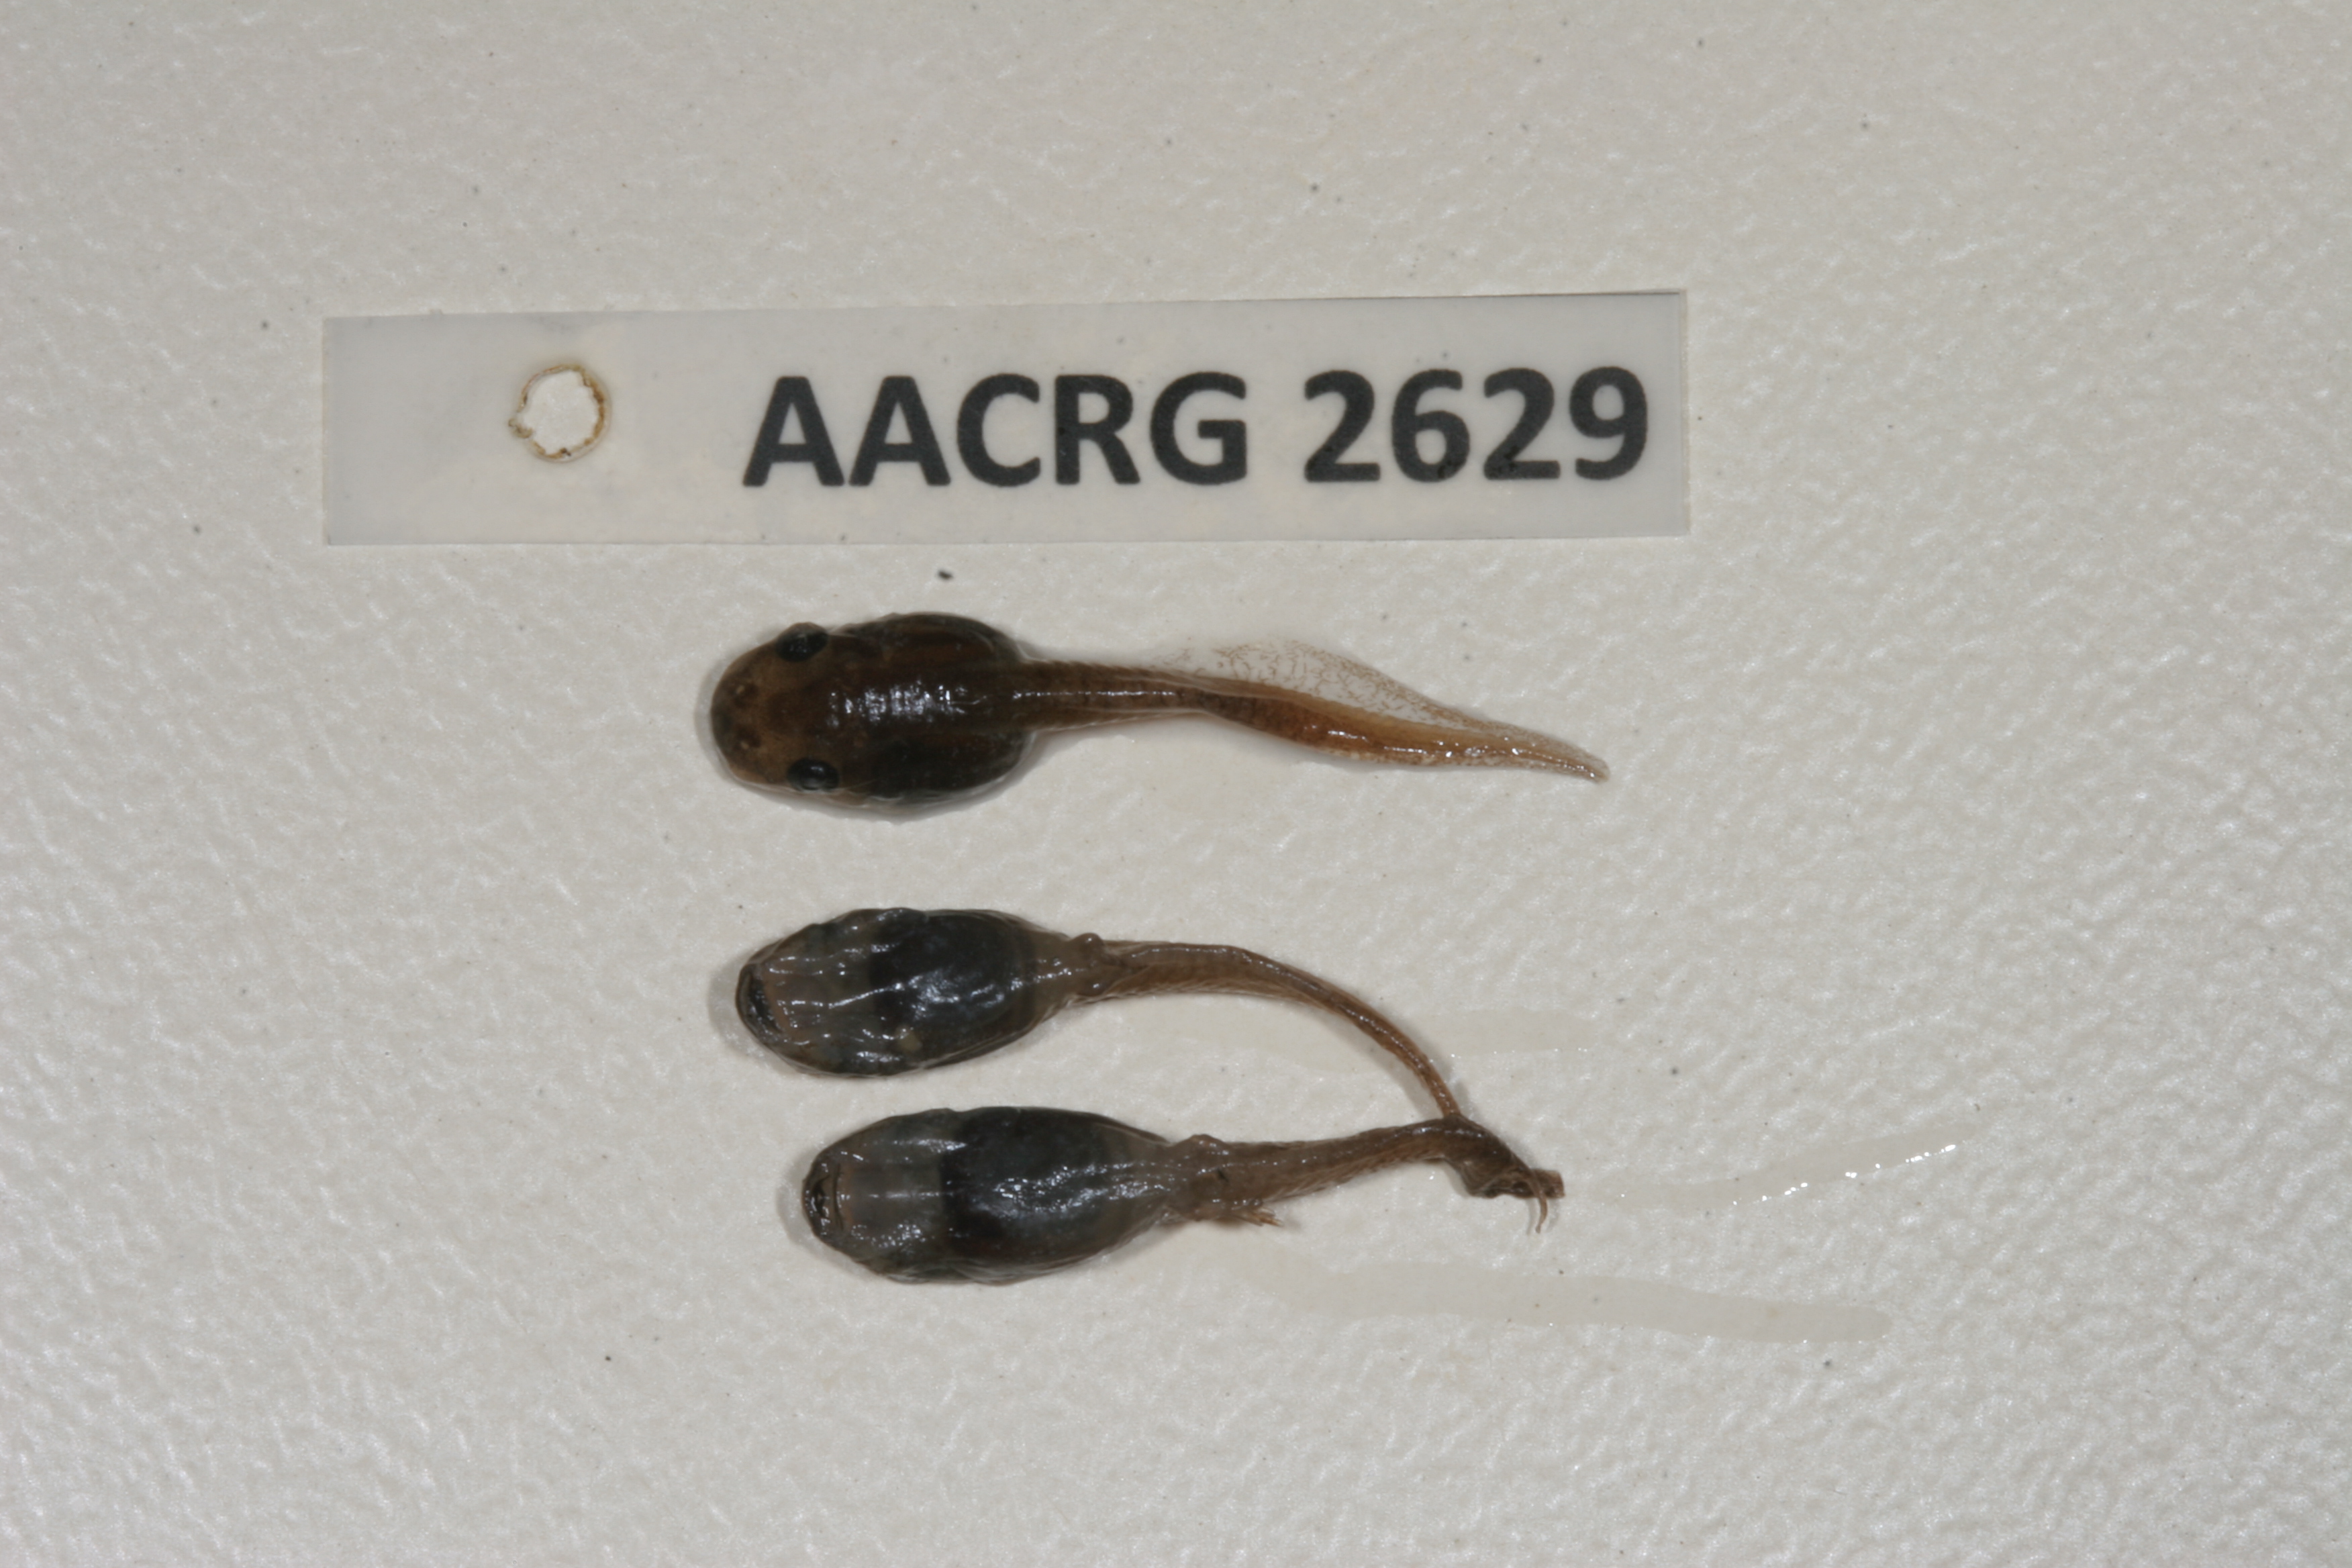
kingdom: Animalia
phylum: Chordata
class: Amphibia
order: Anura
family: Pyxicephalidae
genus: Microbatrachella
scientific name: Microbatrachella capensis
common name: Cape flats frog
